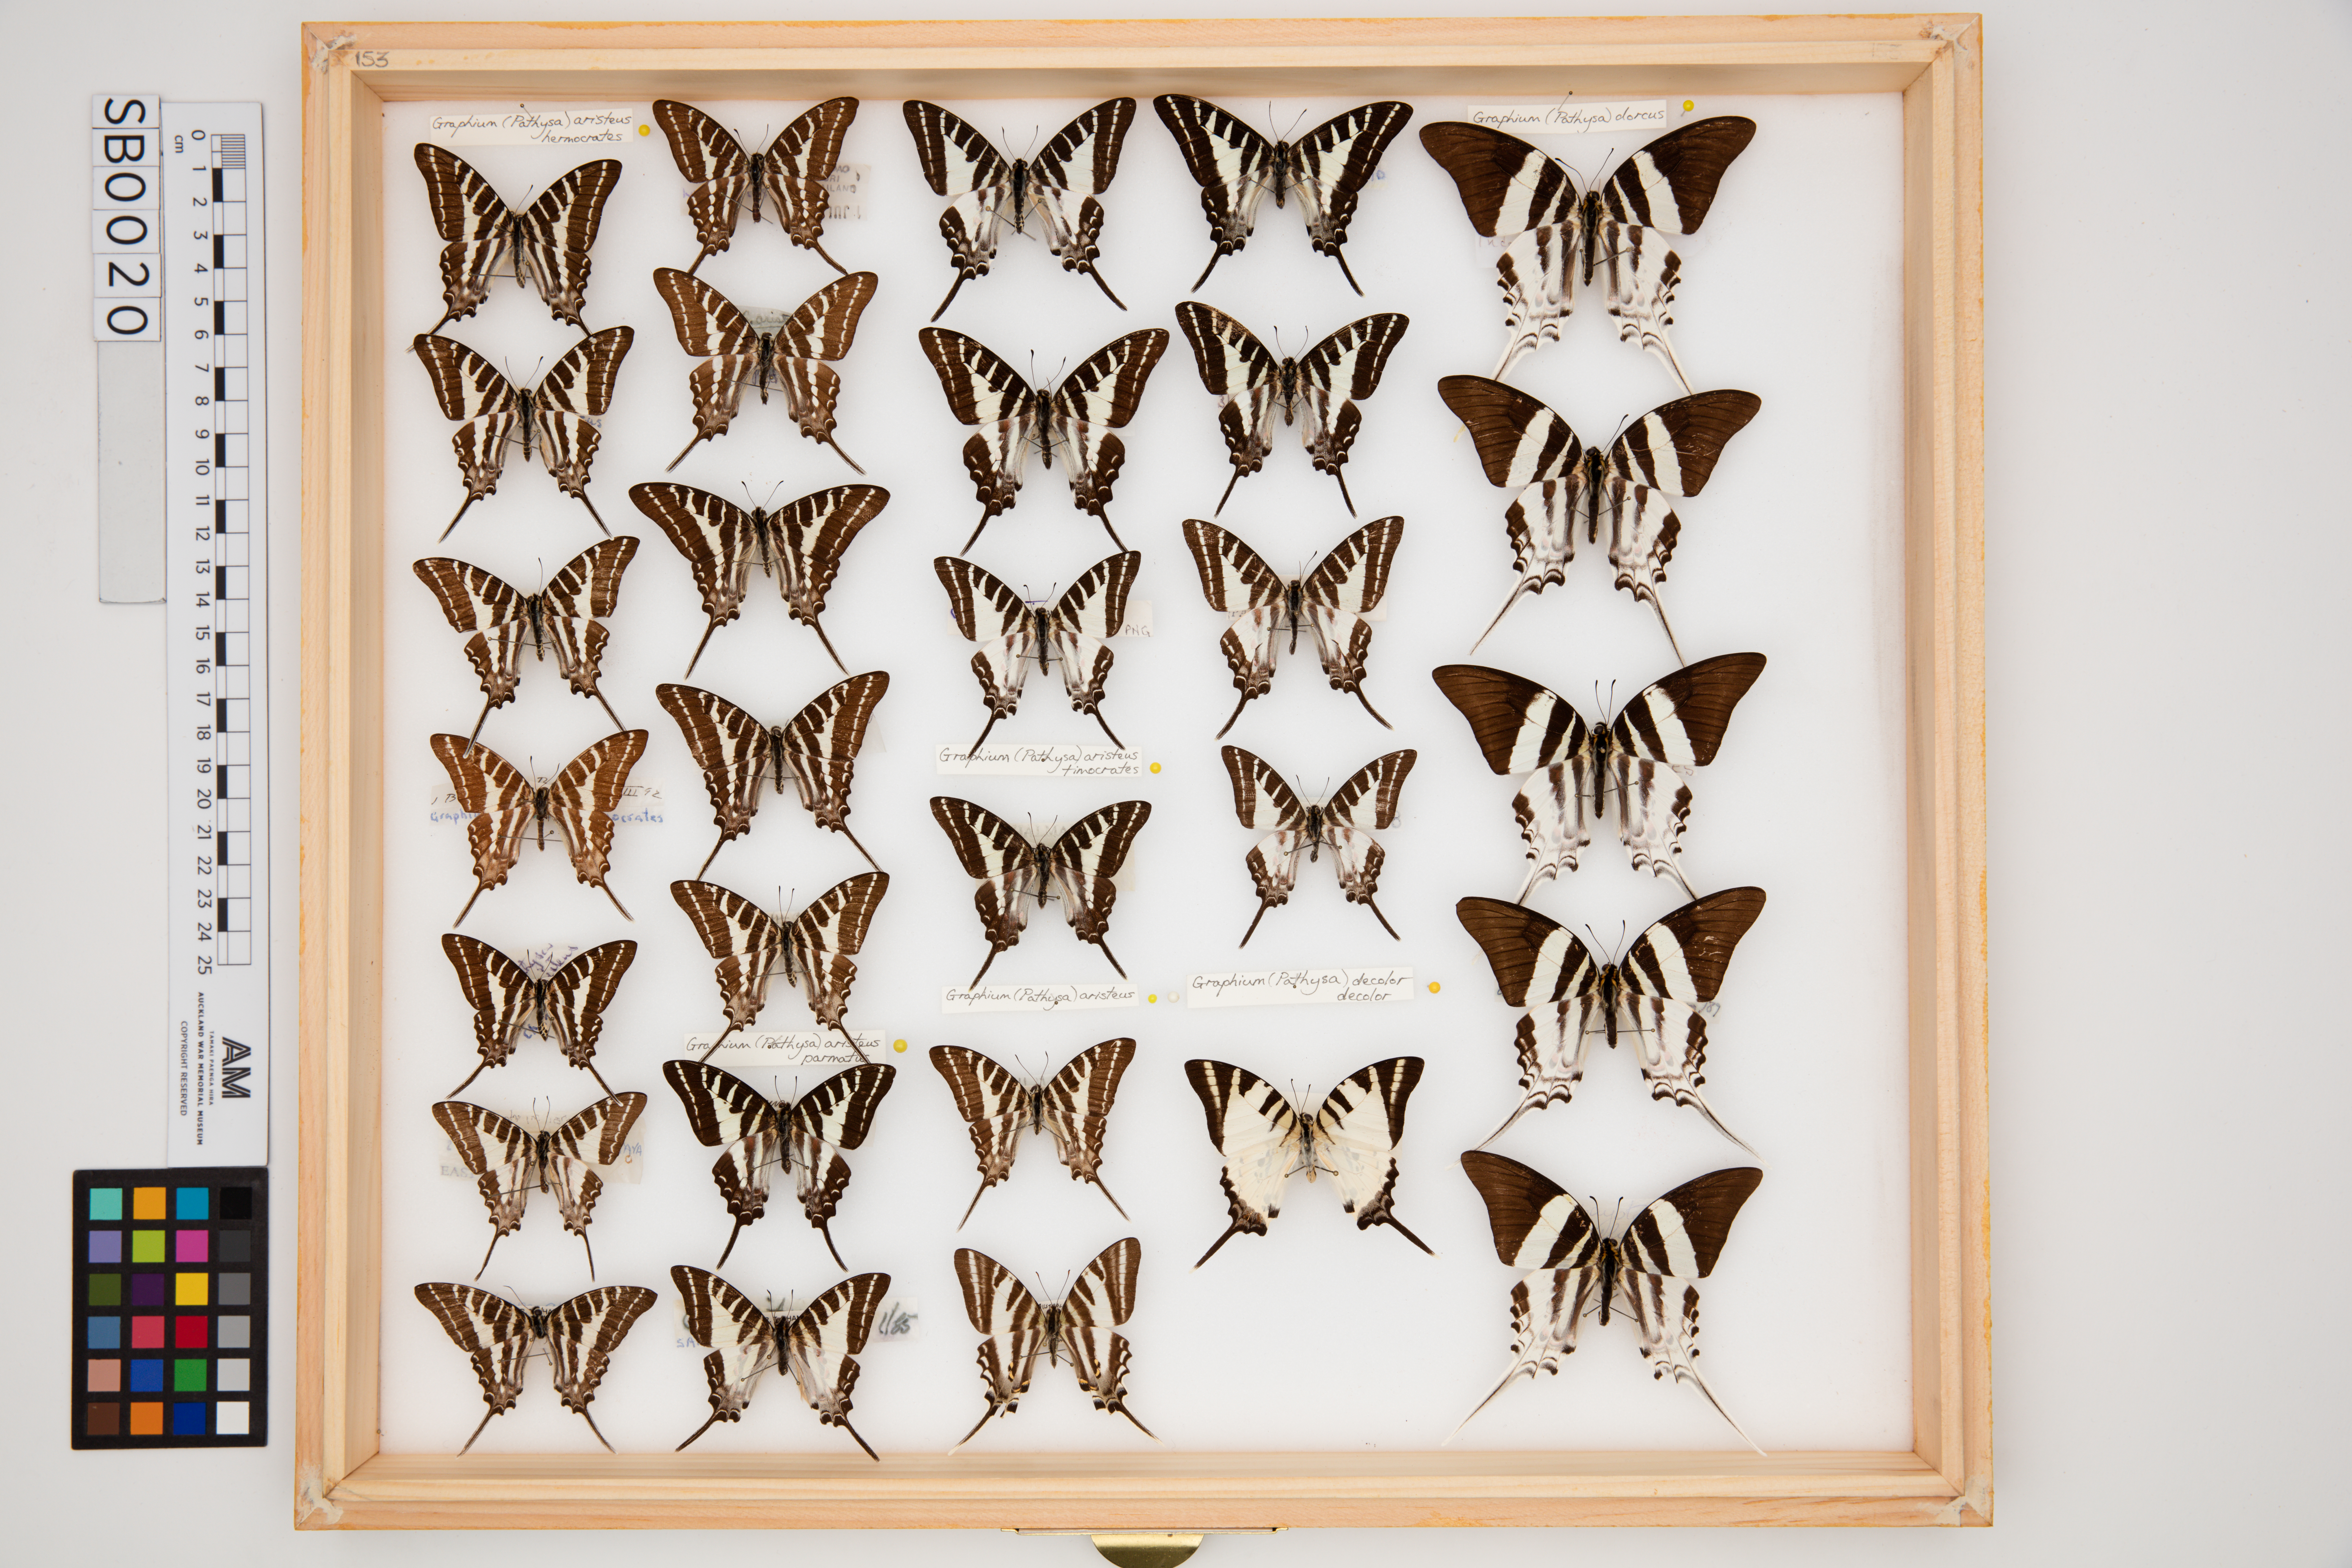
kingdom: Animalia
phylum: Arthropoda
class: Insecta
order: Lepidoptera
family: Papilionidae
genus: Graphium
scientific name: Graphium aristeus
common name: Chain swordtail
